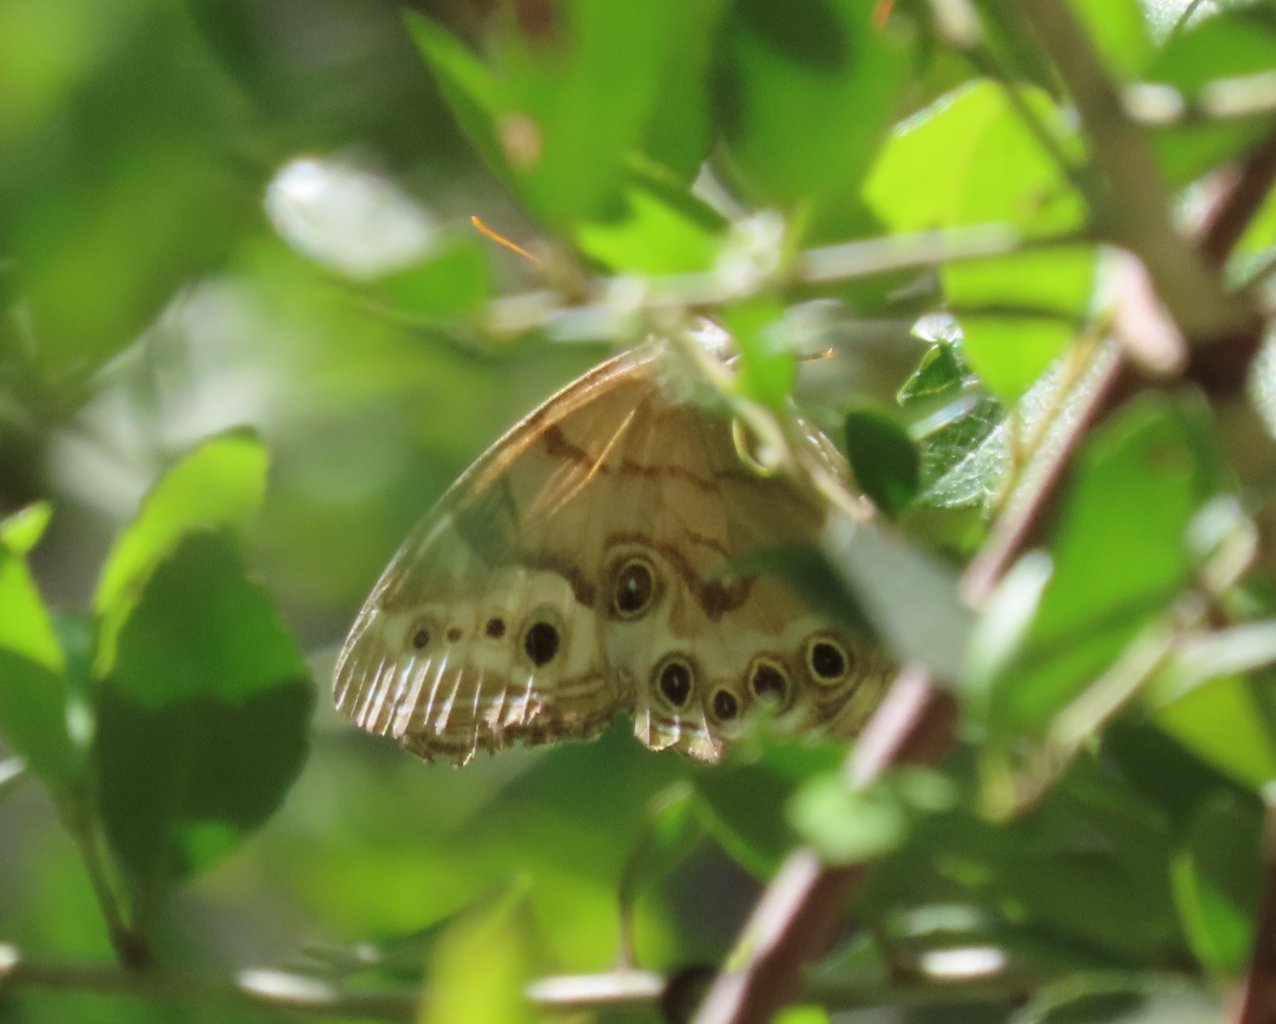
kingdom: Animalia
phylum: Arthropoda
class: Insecta
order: Lepidoptera
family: Nymphalidae
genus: Enodia
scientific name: Enodia portlandia
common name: Southern Pearly Eye
